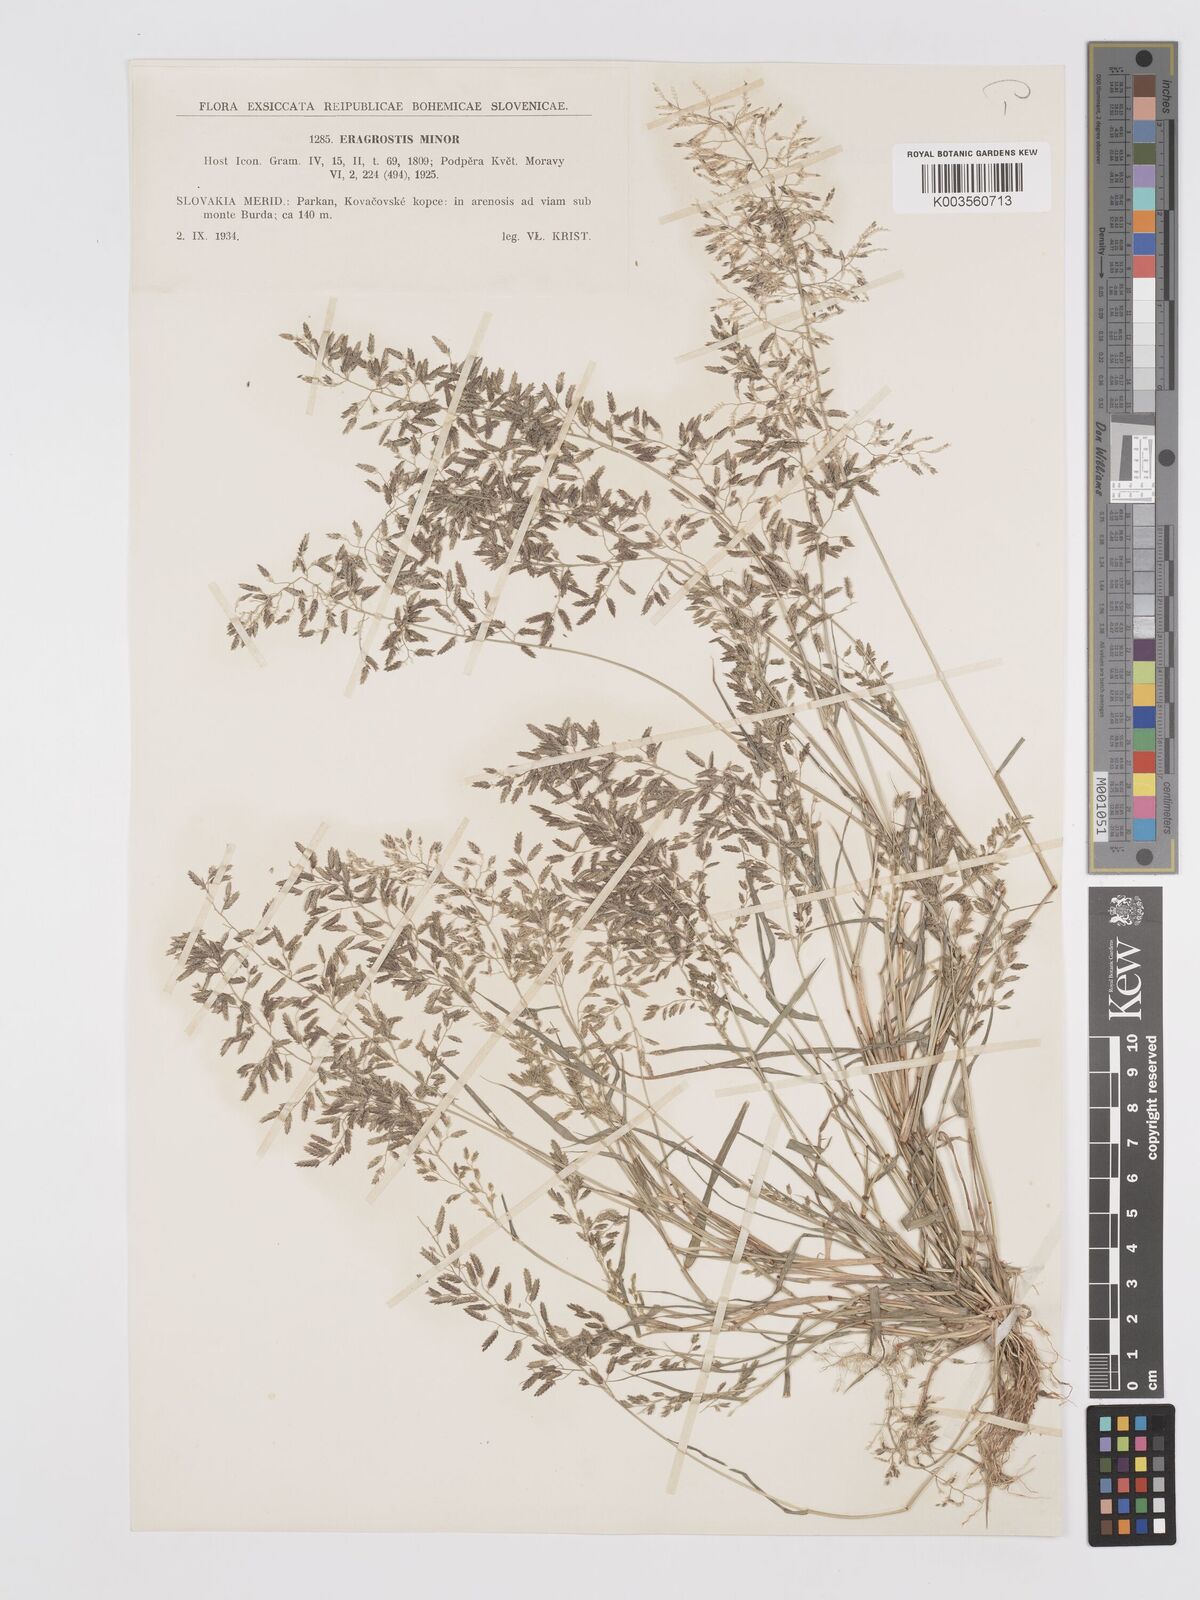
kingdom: Plantae
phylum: Tracheophyta
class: Liliopsida
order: Poales
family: Poaceae
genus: Eragrostis
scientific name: Eragrostis minor
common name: Small love-grass
